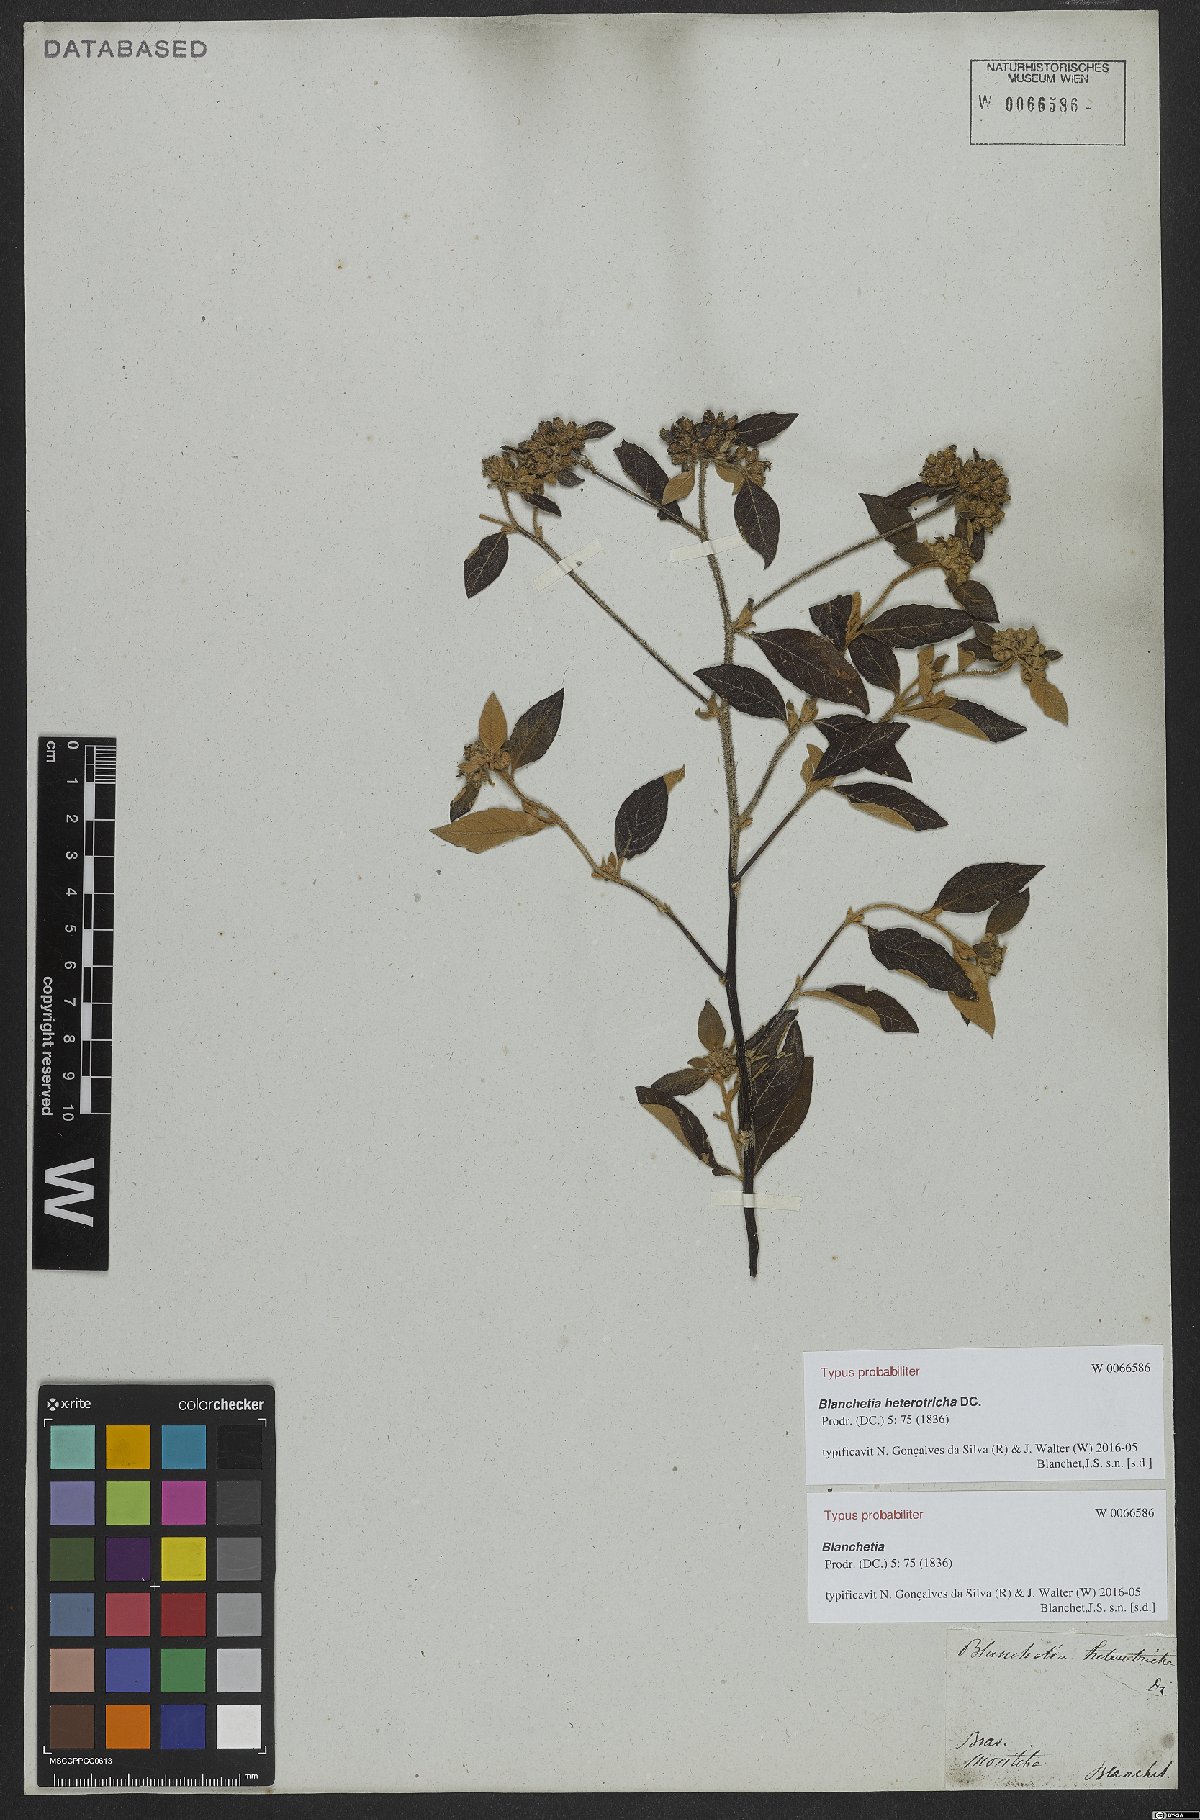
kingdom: Plantae
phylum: Tracheophyta
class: Magnoliopsida
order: Asterales
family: Asteraceae
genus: Blanchetia
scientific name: Blanchetia heterotricha
